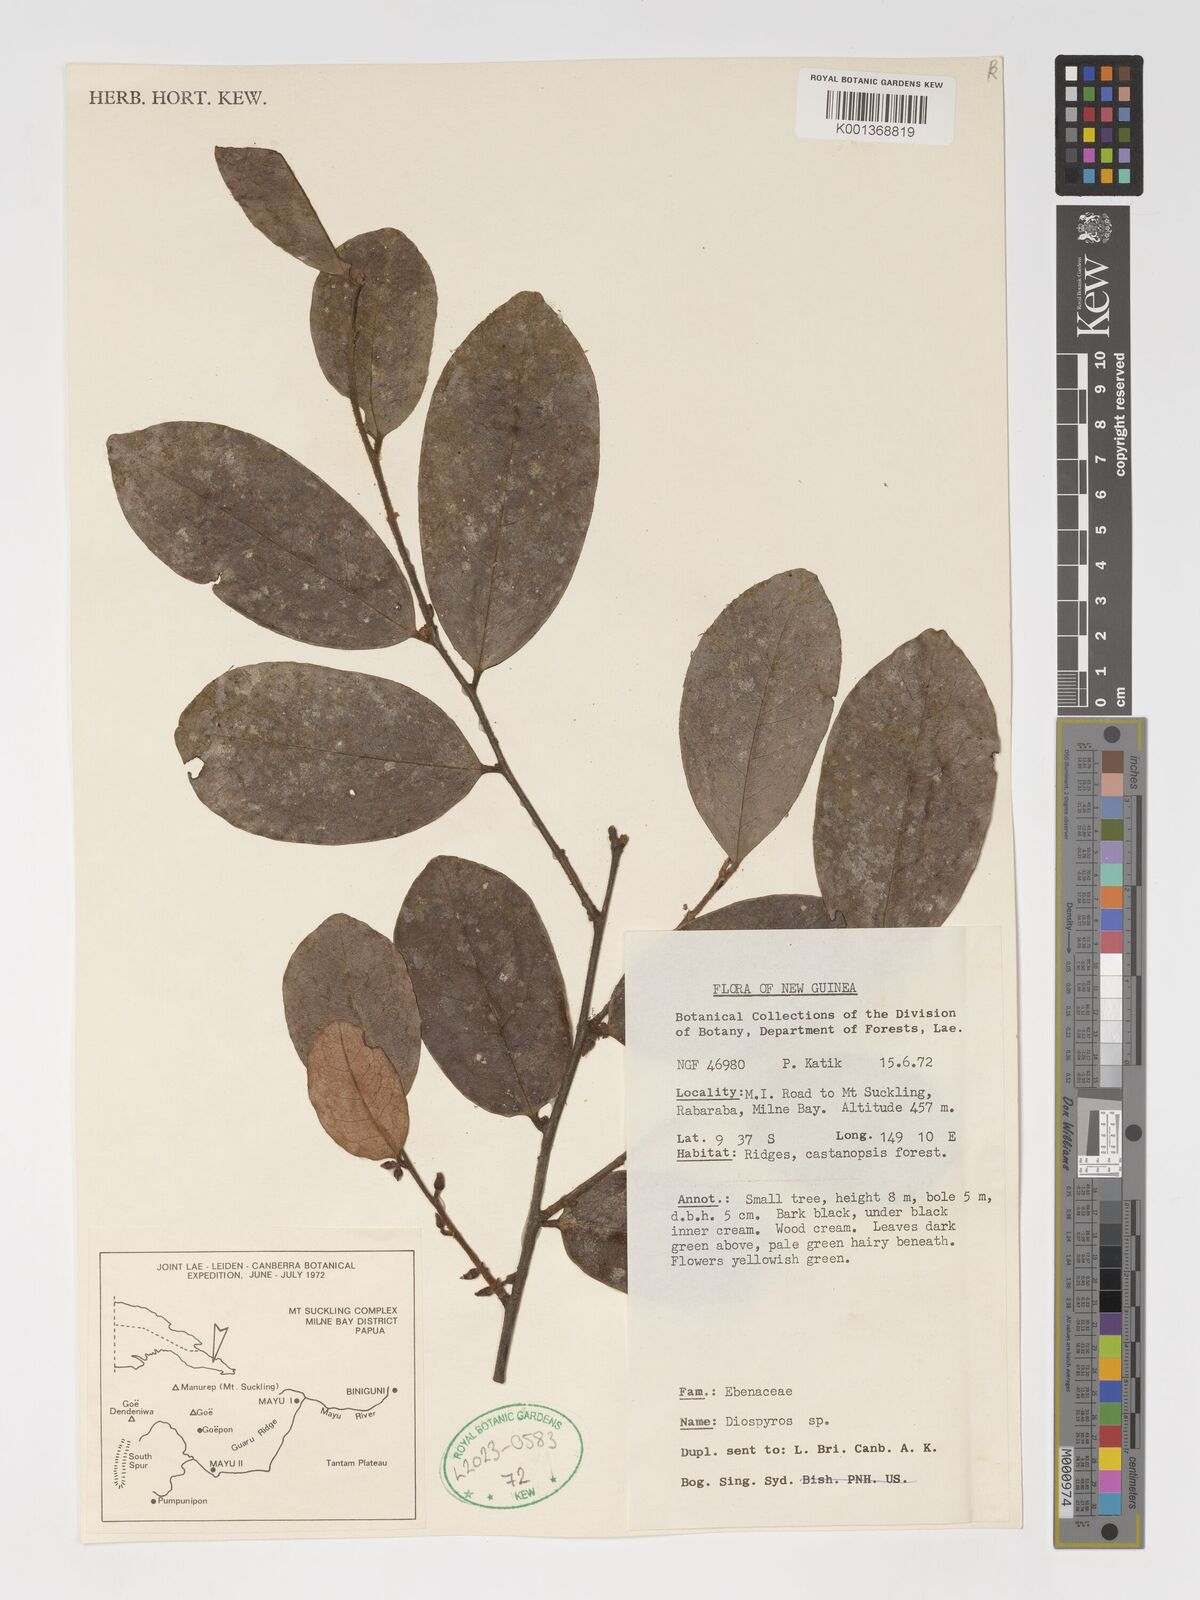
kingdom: Plantae
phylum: Tracheophyta
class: Magnoliopsida
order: Ericales
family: Ebenaceae
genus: Diospyros
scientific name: Diospyros
